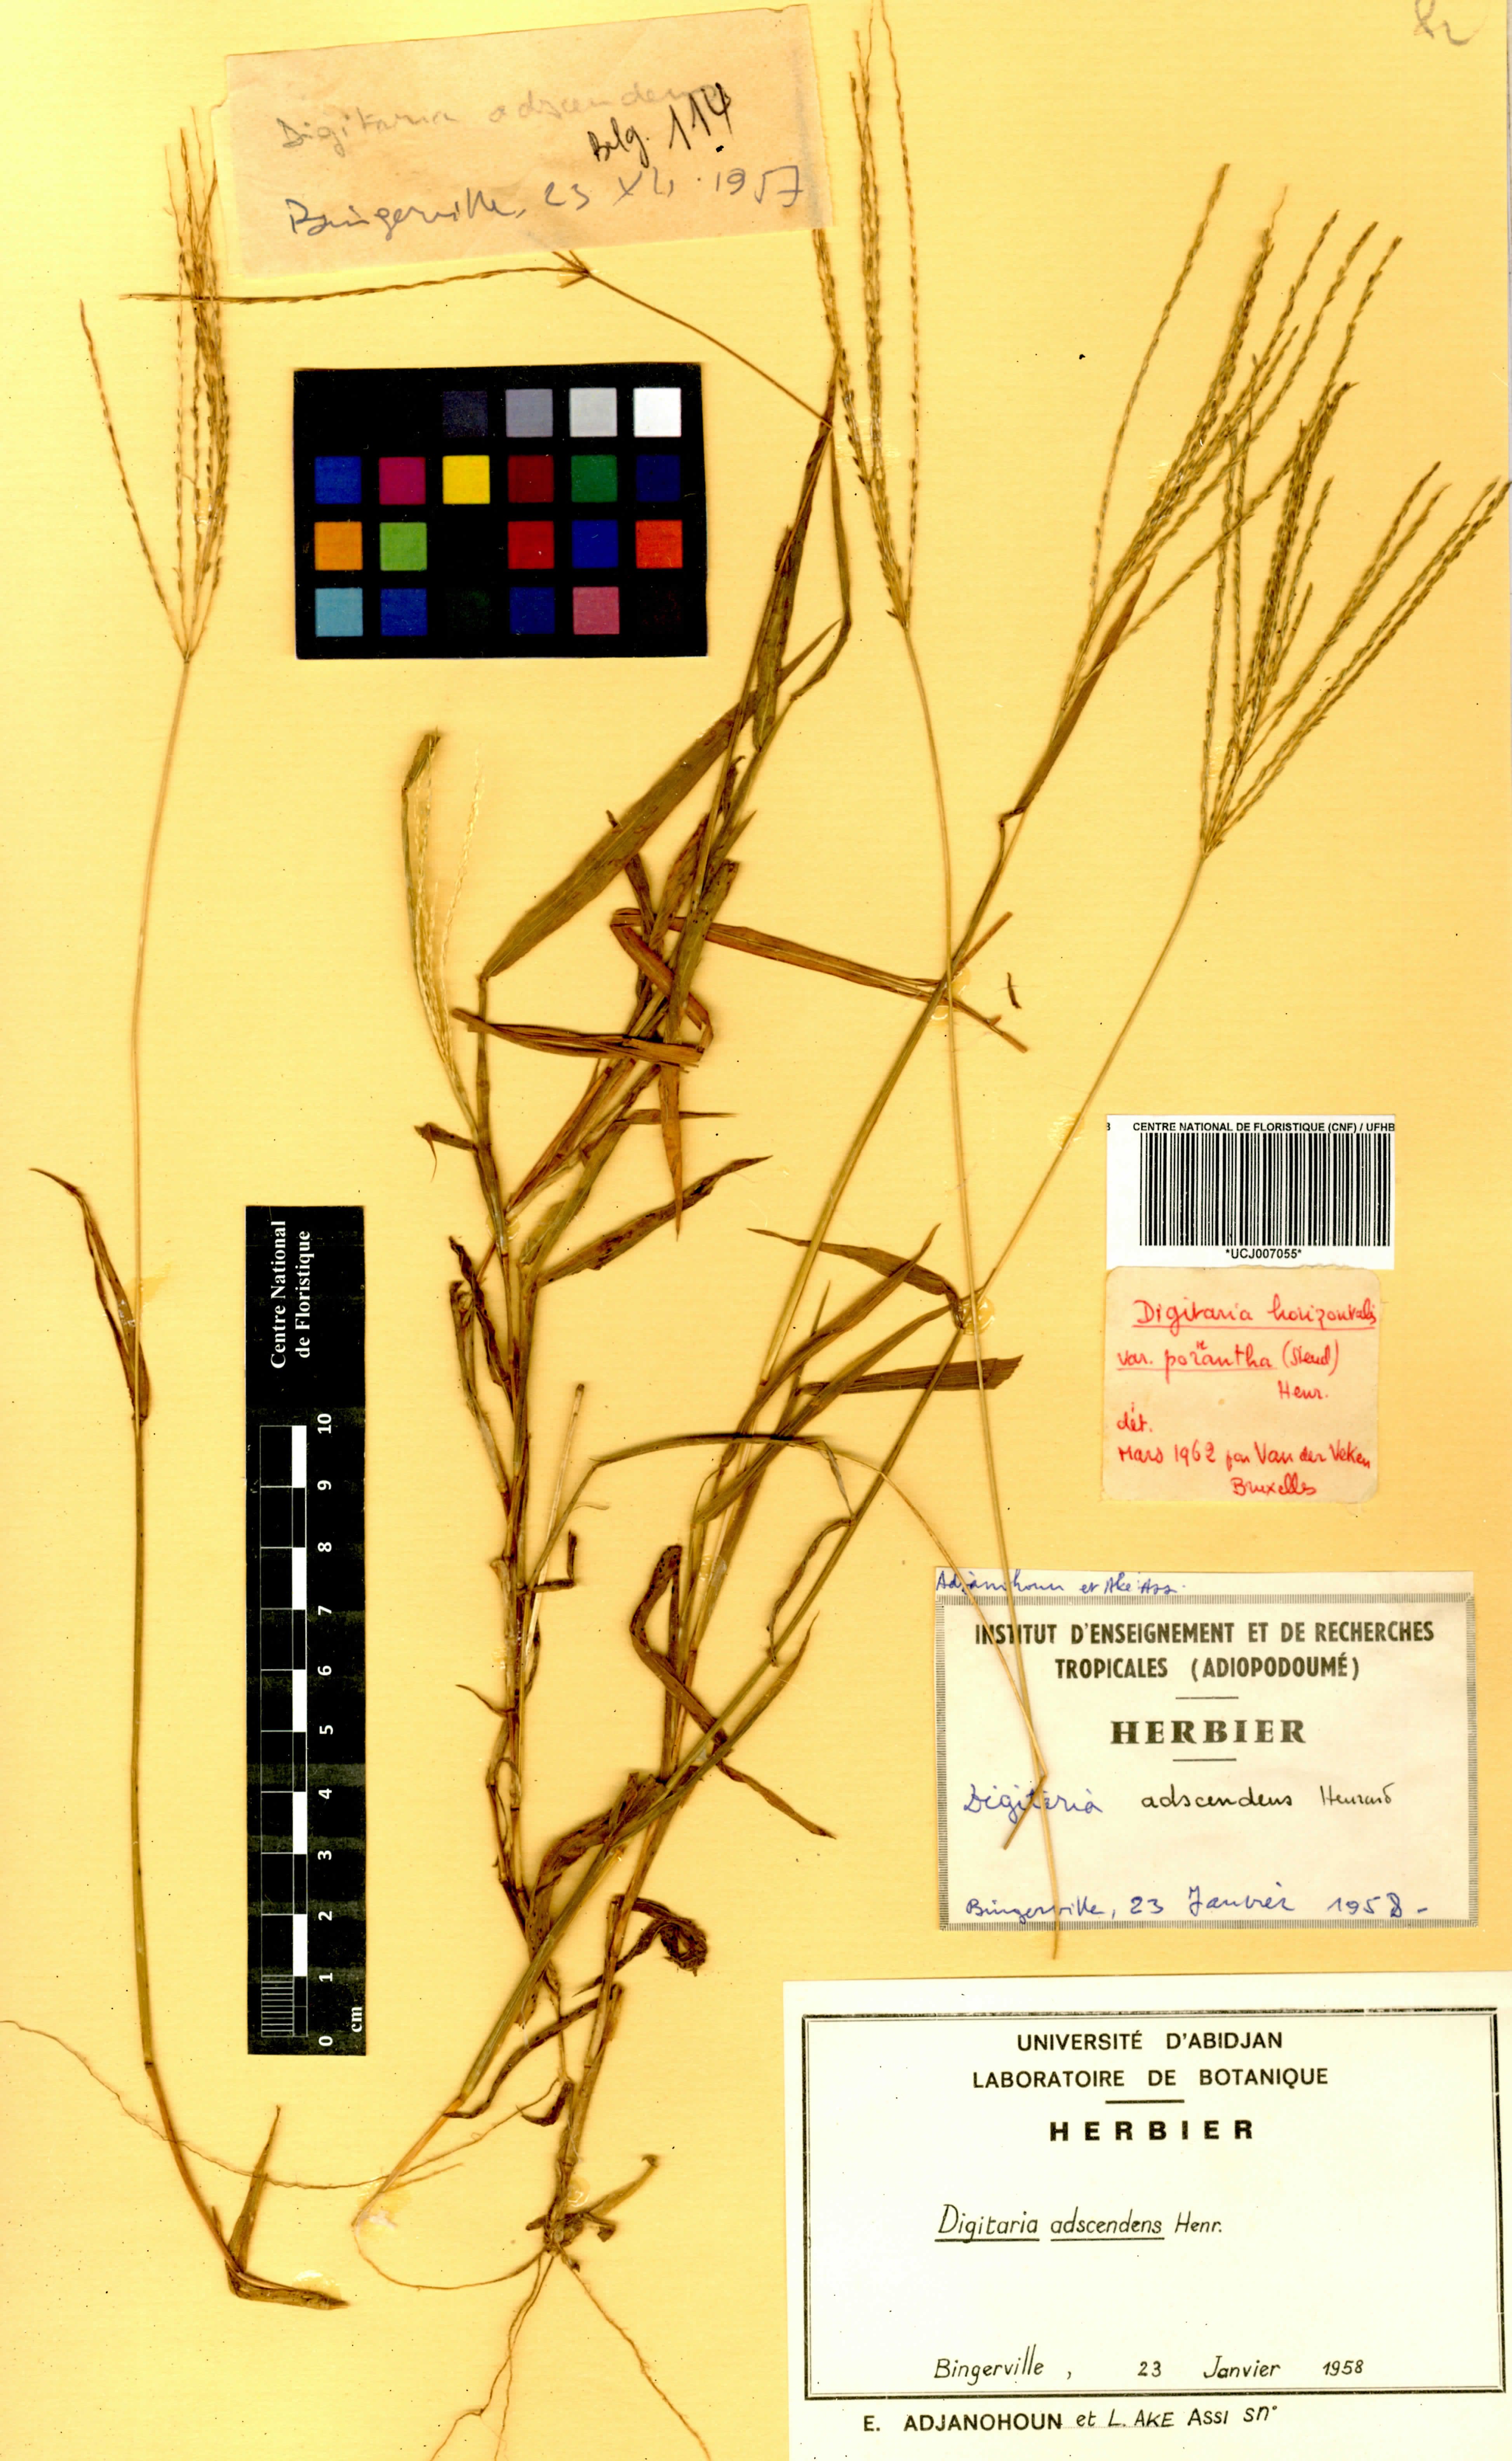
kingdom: Plantae
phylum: Tracheophyta
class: Liliopsida
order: Poales
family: Poaceae
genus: Digitaria
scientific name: Digitaria ciliaris
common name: Tropical finger-grass
